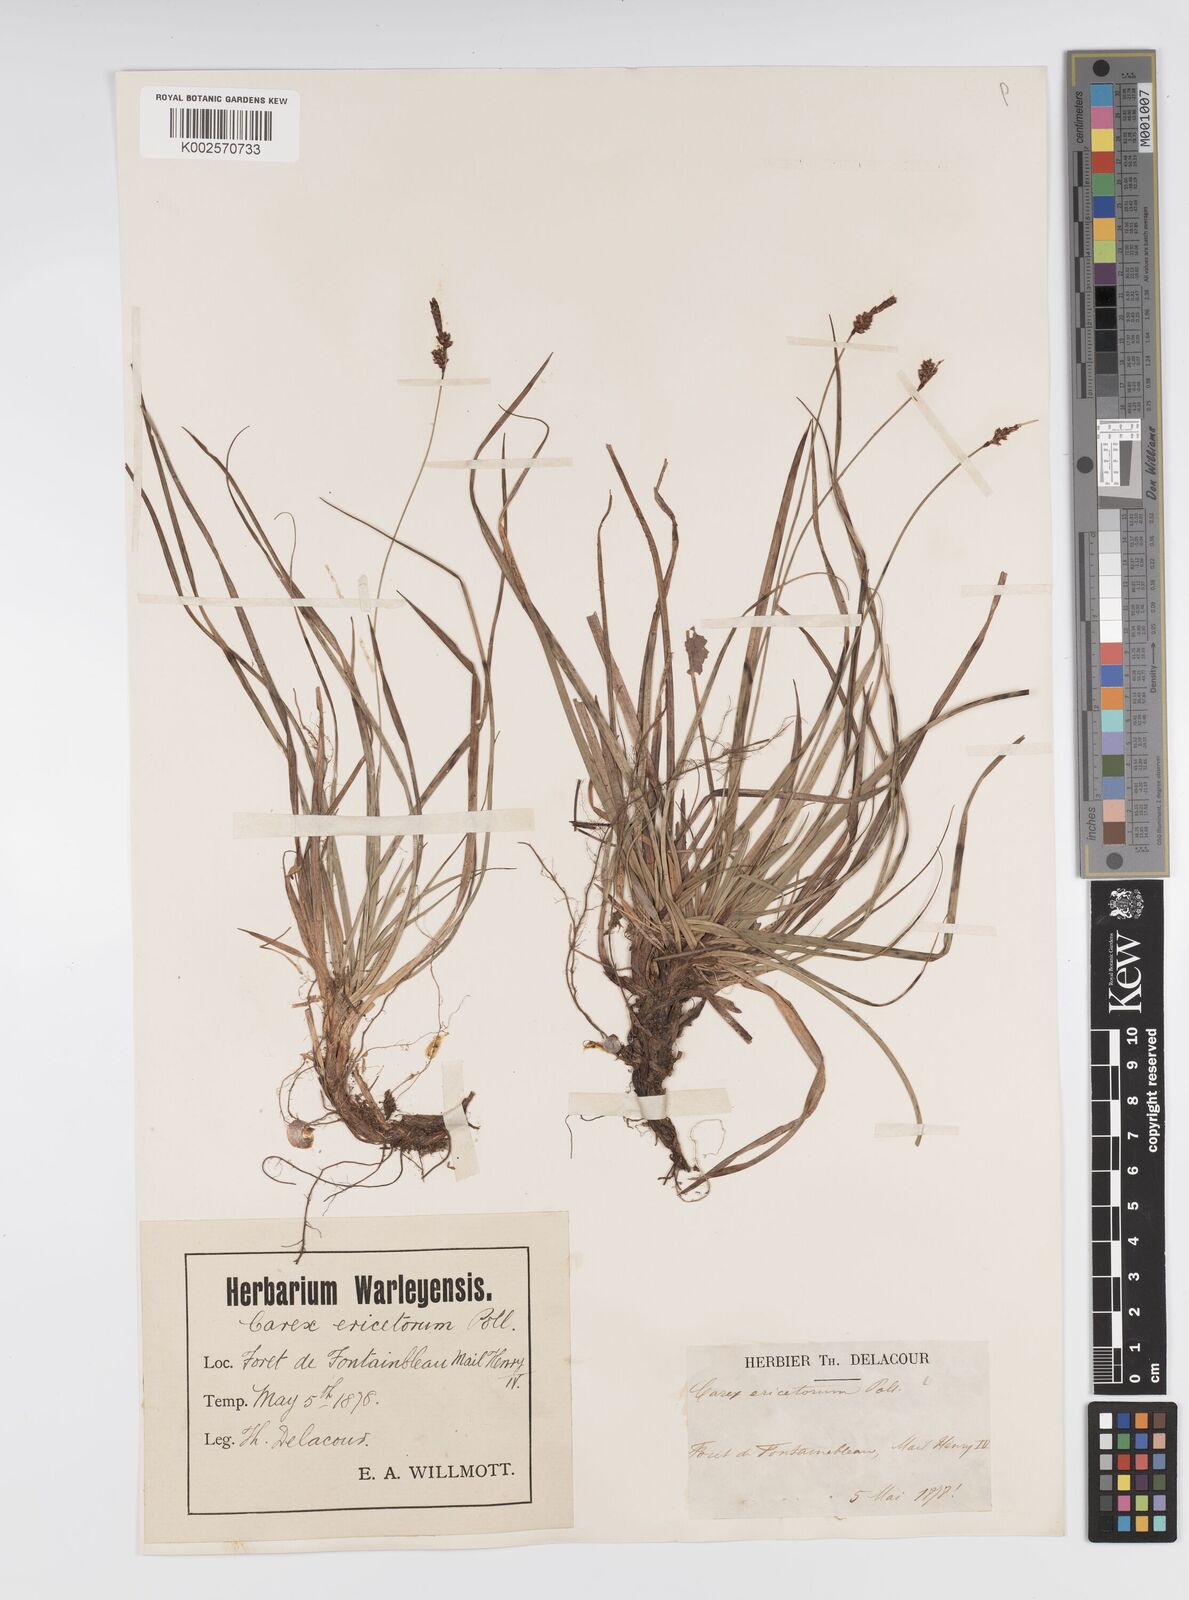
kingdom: Plantae
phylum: Tracheophyta
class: Liliopsida
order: Poales
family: Cyperaceae
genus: Carex
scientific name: Carex ericetorum
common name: Rare spring-sedge
